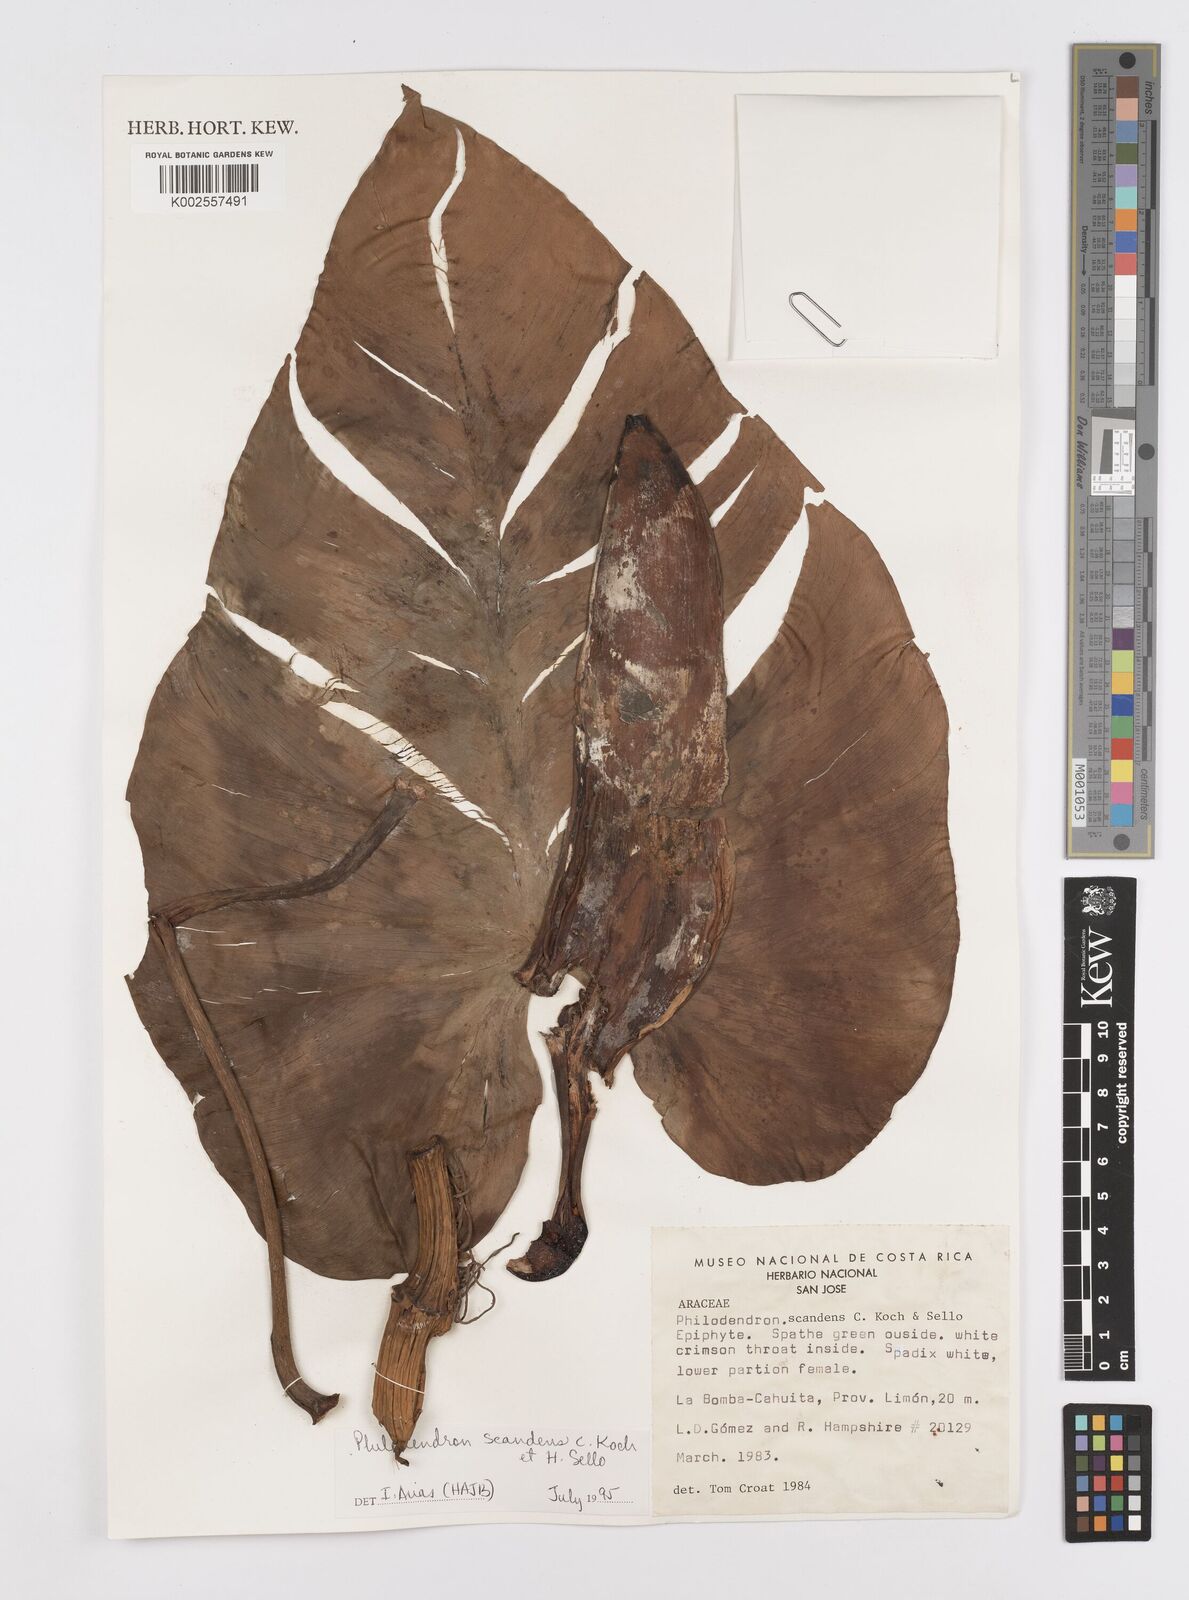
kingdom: Plantae
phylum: Tracheophyta
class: Liliopsida
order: Alismatales
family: Araceae
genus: Philodendron
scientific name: Philodendron hederaceum
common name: Vilevine
